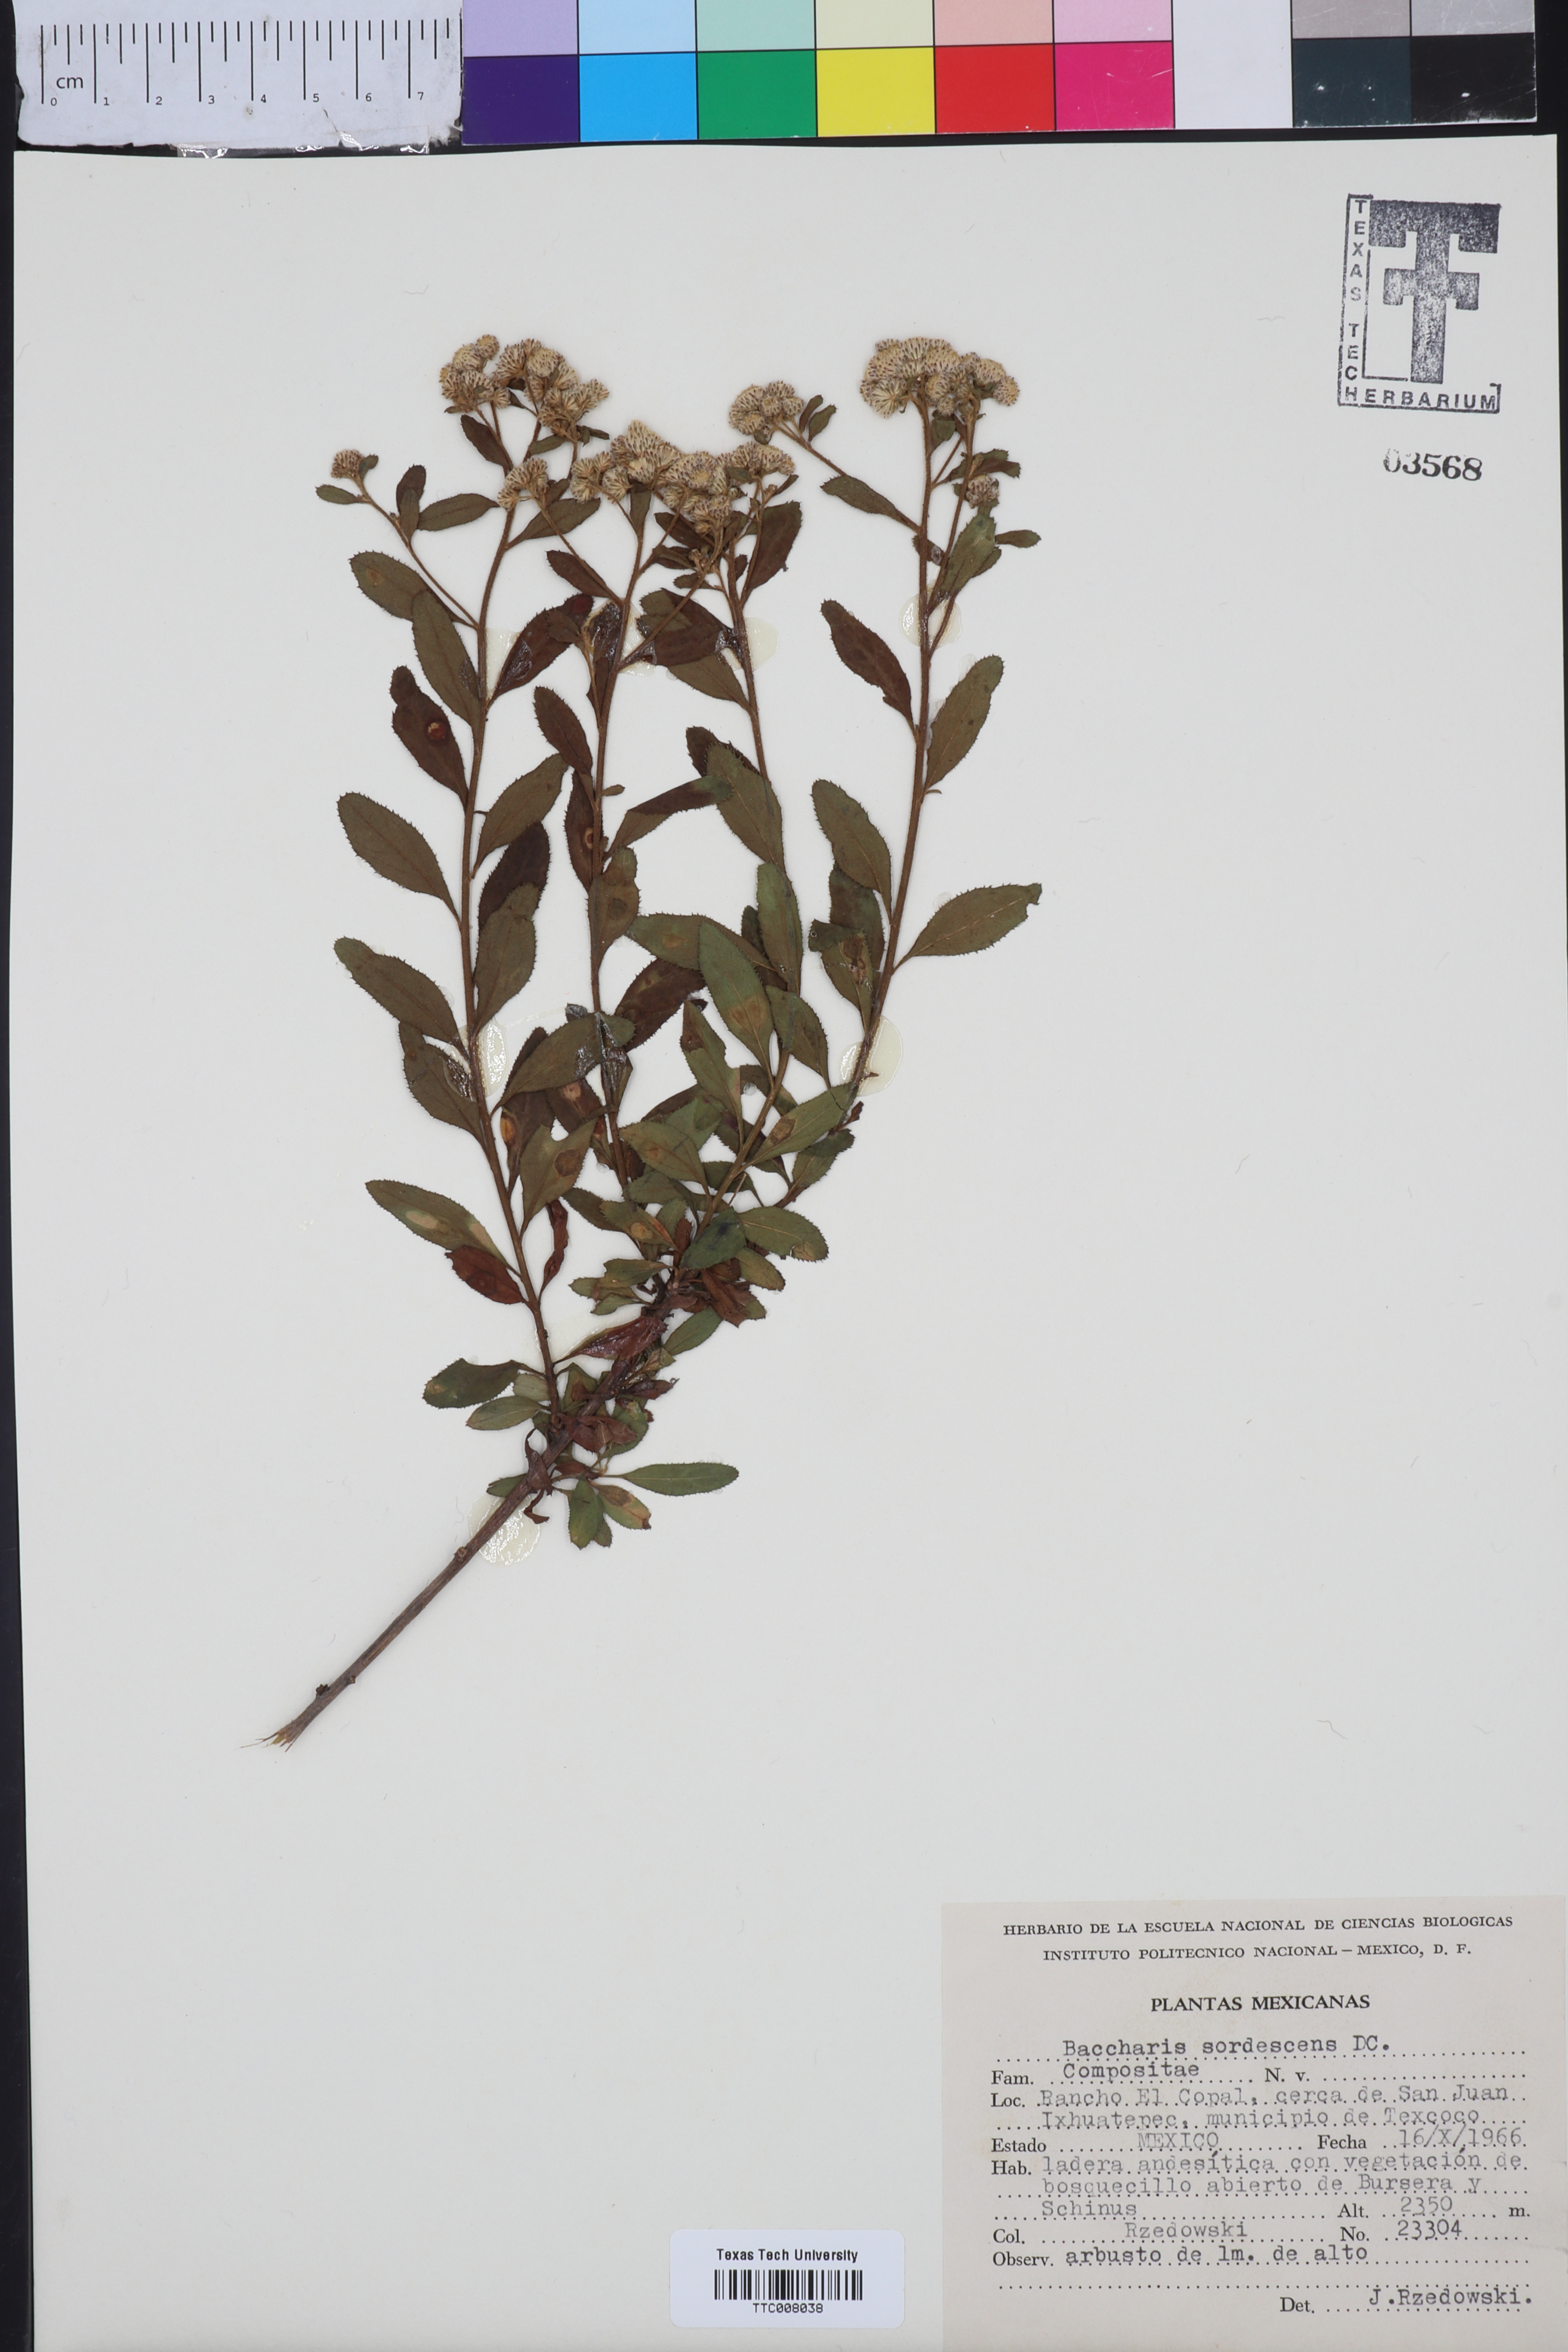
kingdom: Plantae
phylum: Tracheophyta
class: Magnoliopsida
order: Asterales
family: Asteraceae
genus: Baccharis
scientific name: Baccharis sordescens
